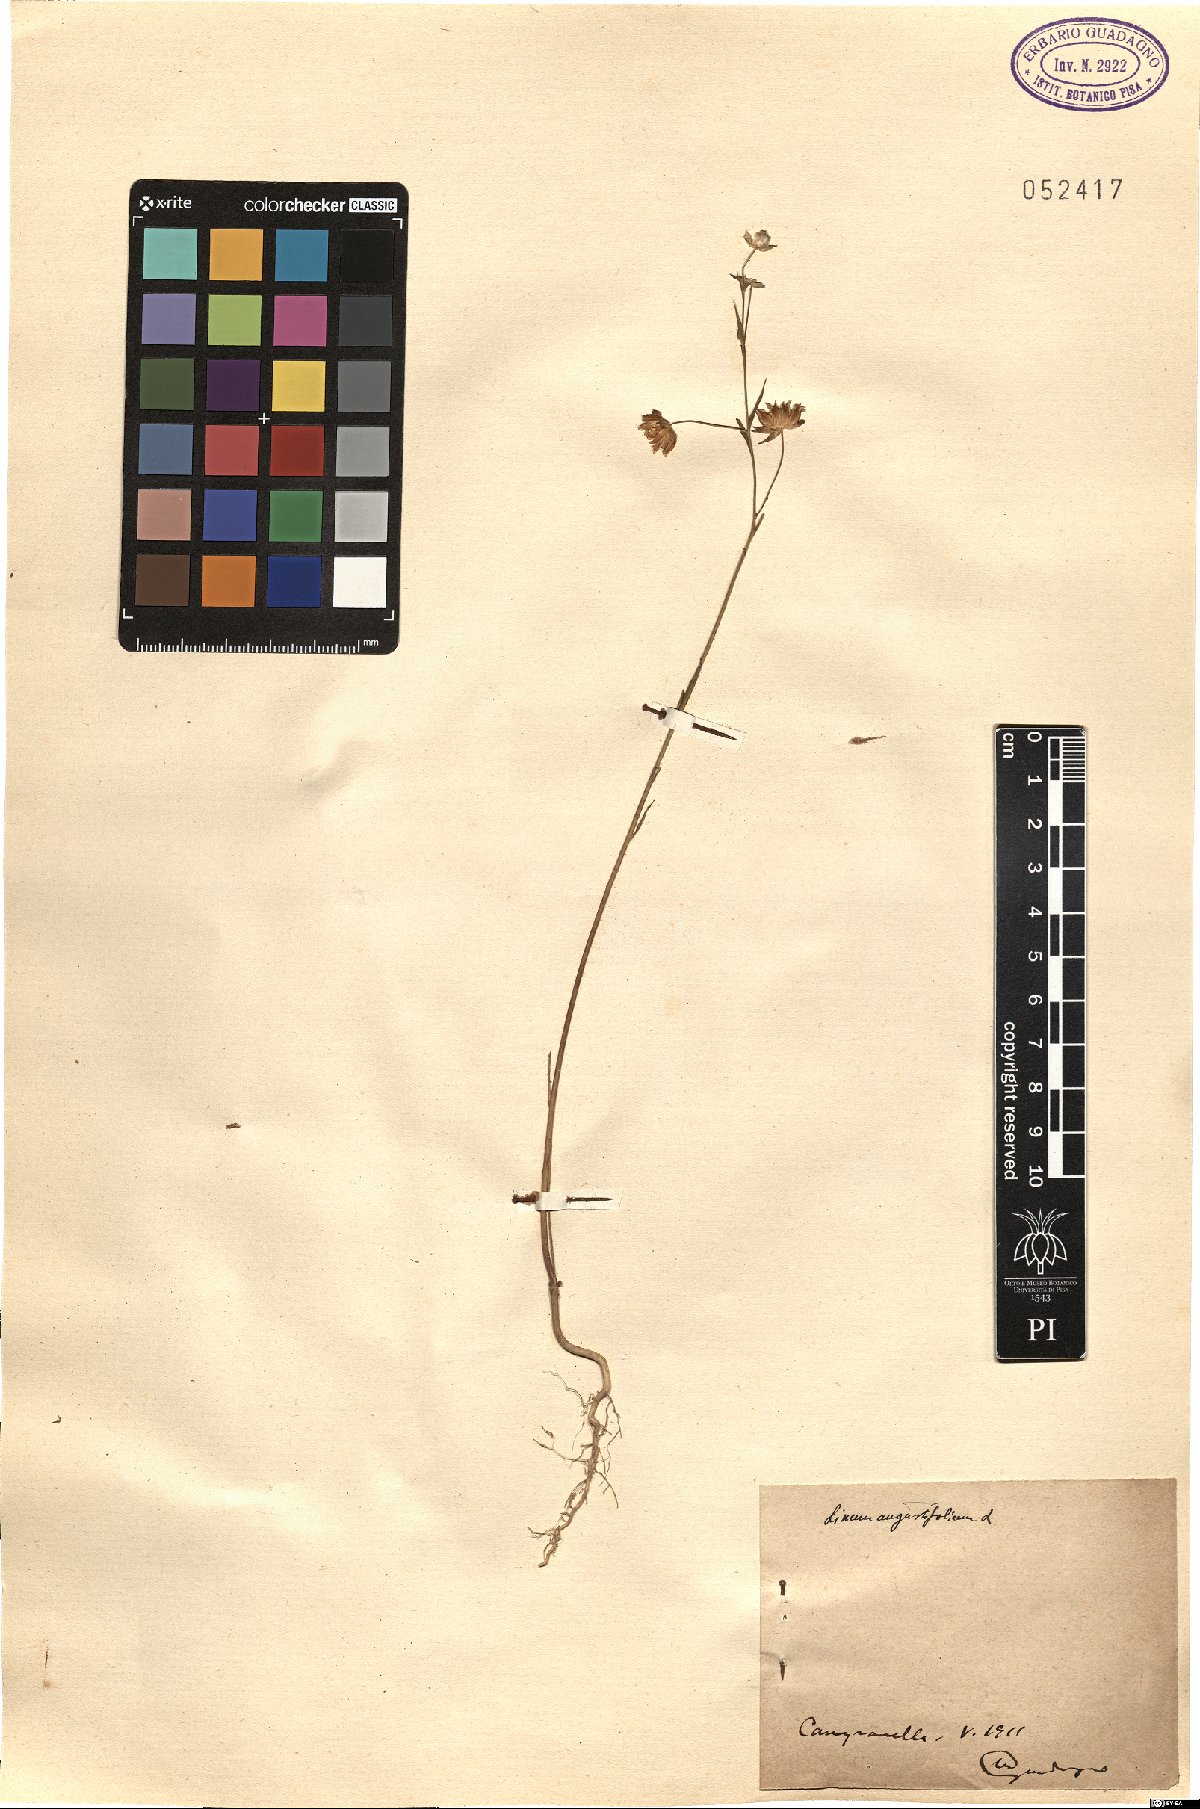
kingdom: Plantae
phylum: Tracheophyta
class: Magnoliopsida
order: Malpighiales
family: Linaceae
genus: Linum
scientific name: Linum bienne
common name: Pale flax
